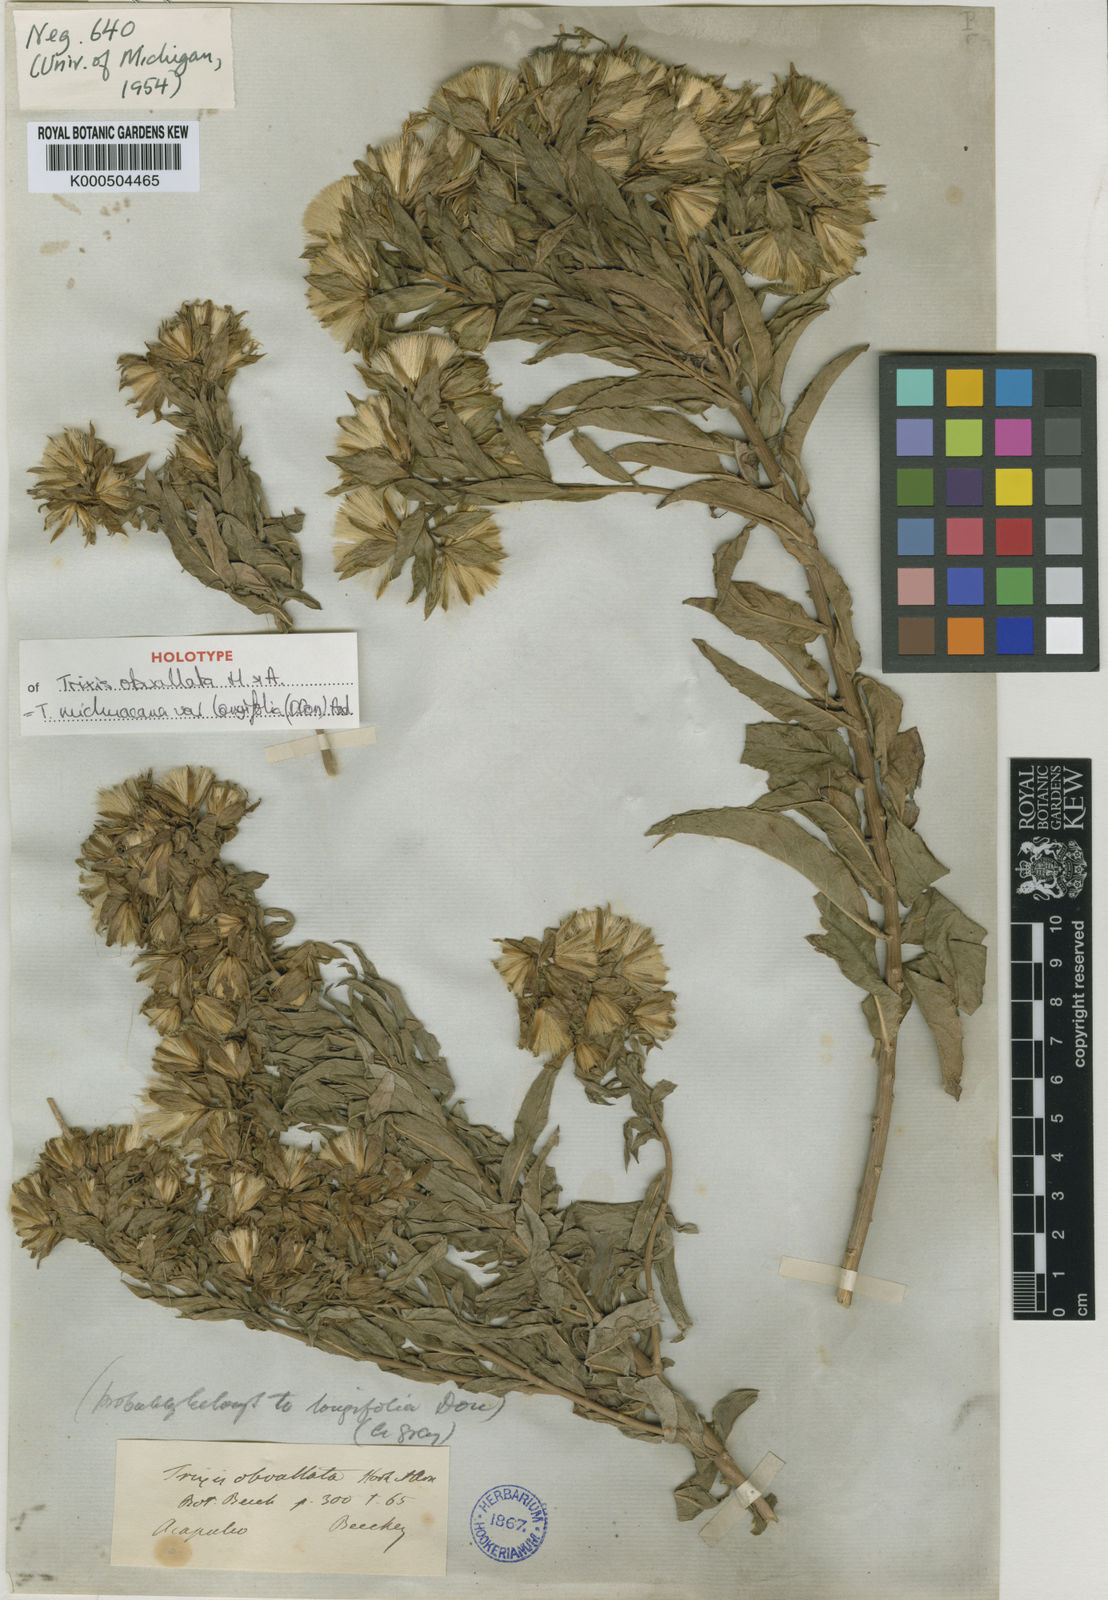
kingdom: Plantae
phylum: Tracheophyta
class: Magnoliopsida
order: Asterales
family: Asteraceae
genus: Trixis
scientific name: Trixis michoacana
